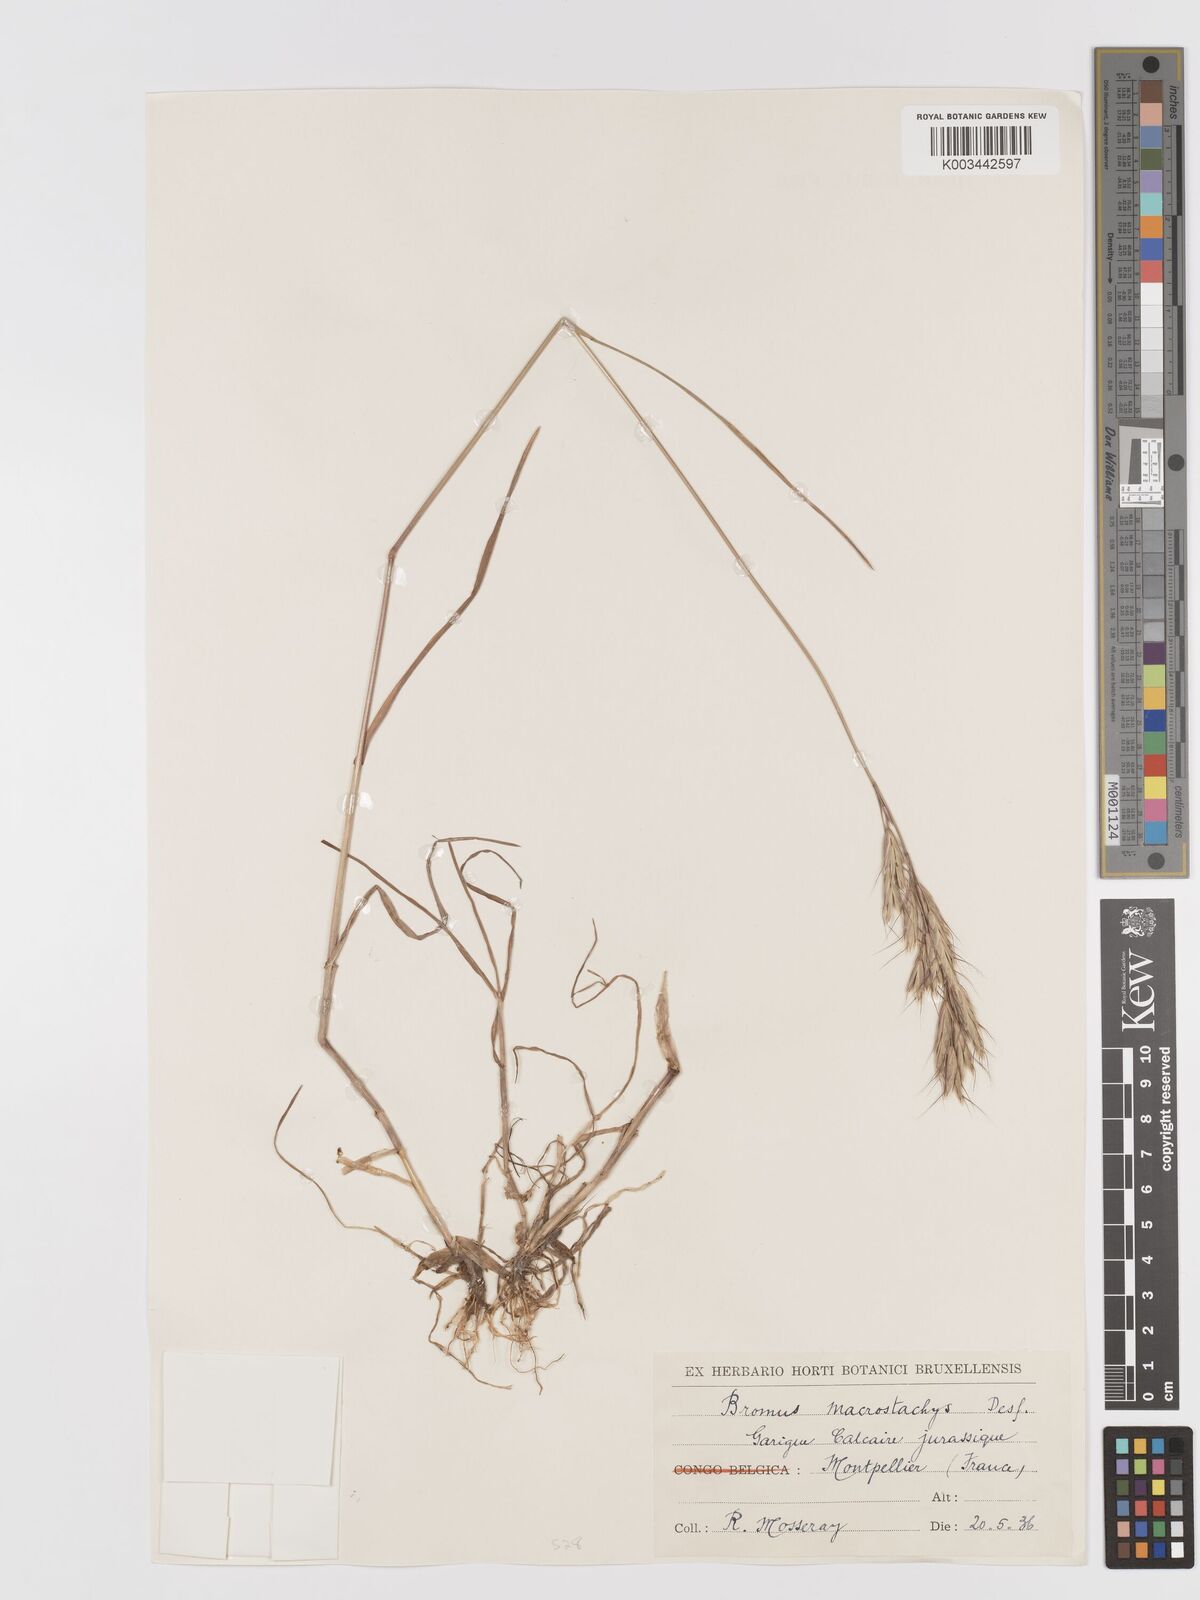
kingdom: Plantae
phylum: Tracheophyta
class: Liliopsida
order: Poales
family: Poaceae
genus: Bromus
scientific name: Bromus lanceolatus
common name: Mediterranean brome
